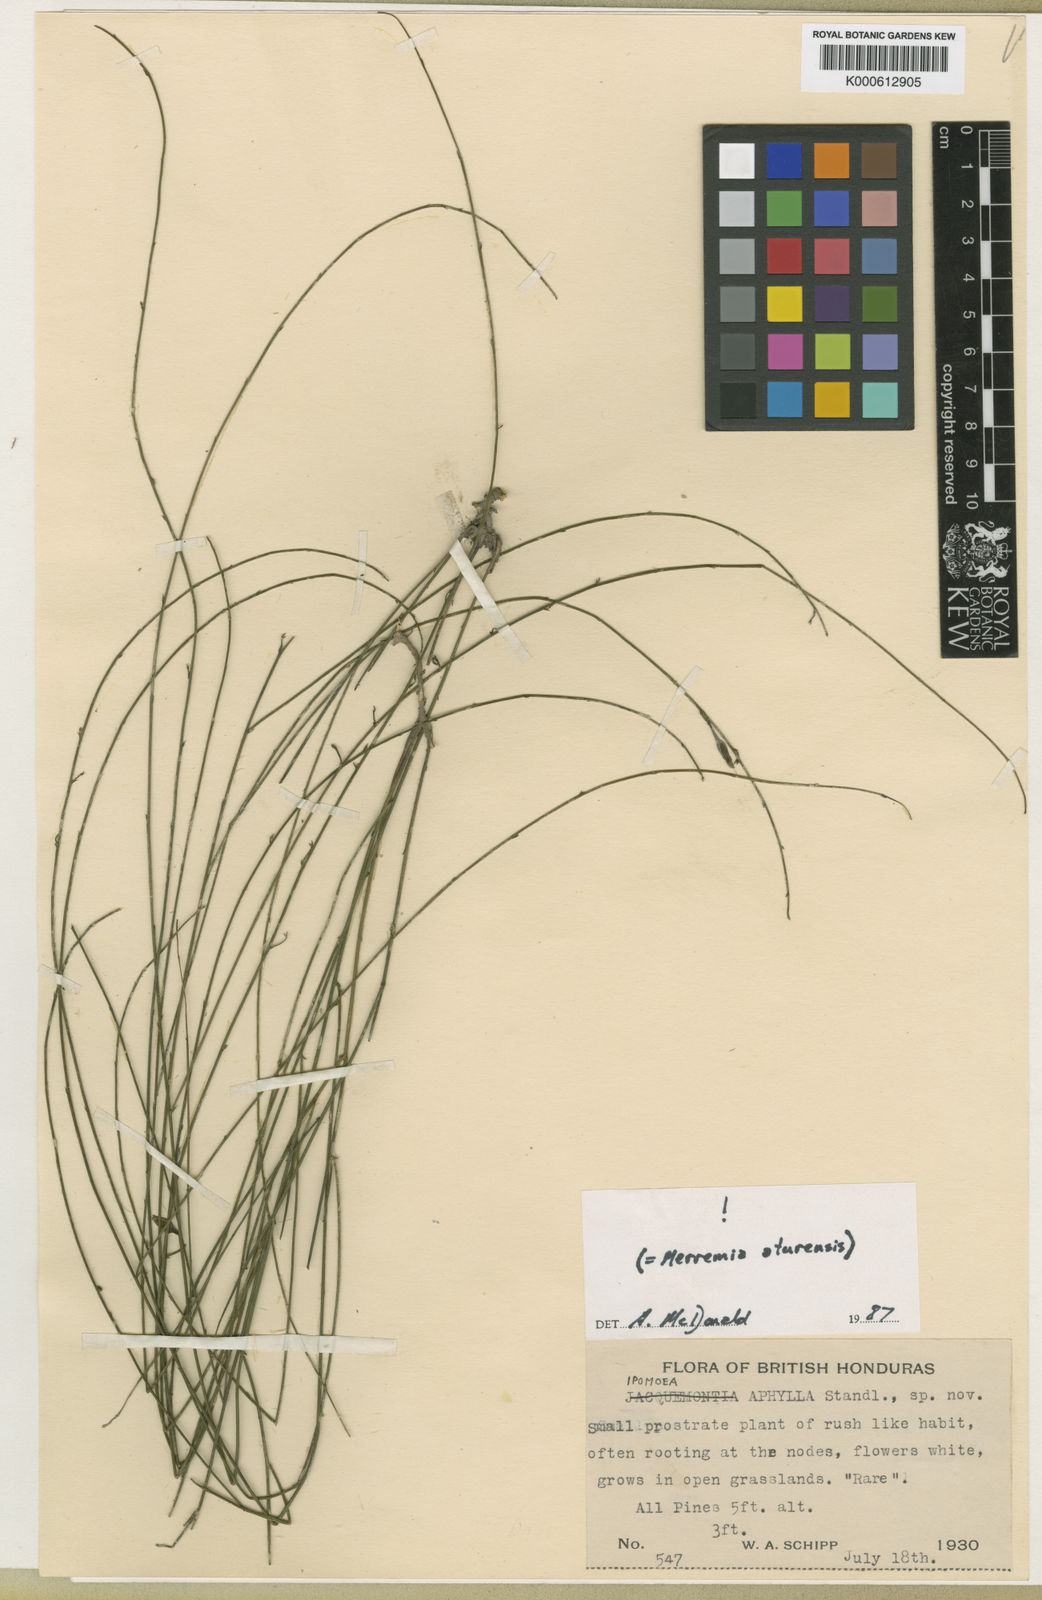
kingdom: Plantae
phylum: Tracheophyta
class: Magnoliopsida
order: Solanales
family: Convolvulaceae
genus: Distimake
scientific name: Distimake aturensis
